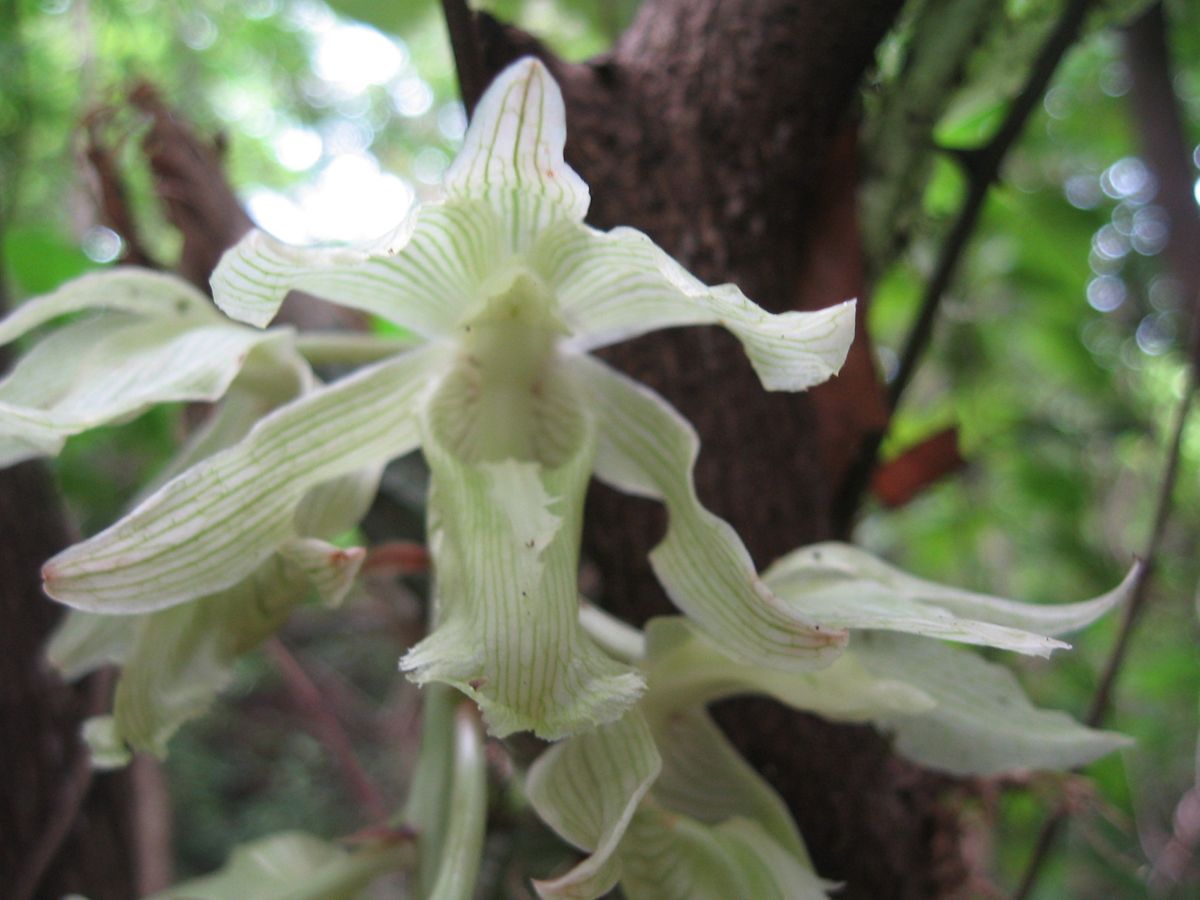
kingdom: Plantae
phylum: Tracheophyta
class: Liliopsida
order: Asparagales
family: Orchidaceae
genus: Clowesia
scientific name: Clowesia russelliana
